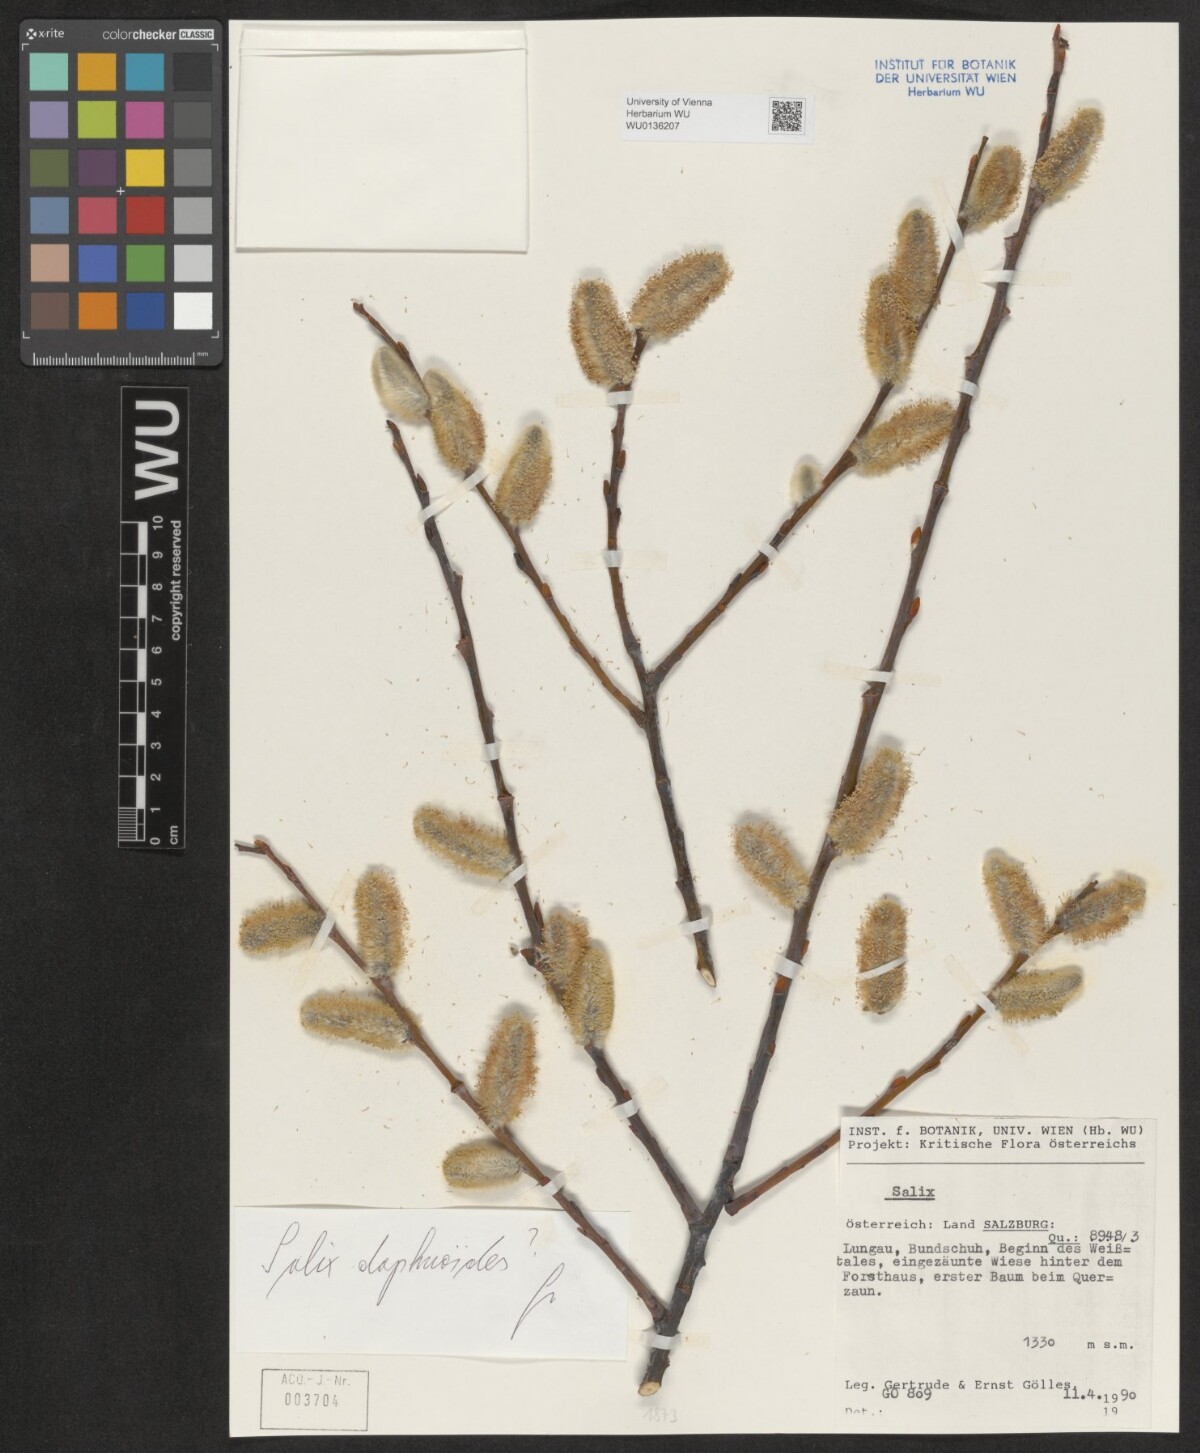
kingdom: Plantae
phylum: Tracheophyta
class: Magnoliopsida
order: Malpighiales
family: Salicaceae
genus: Salix
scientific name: Salix daphnoides
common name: European violet-willow
